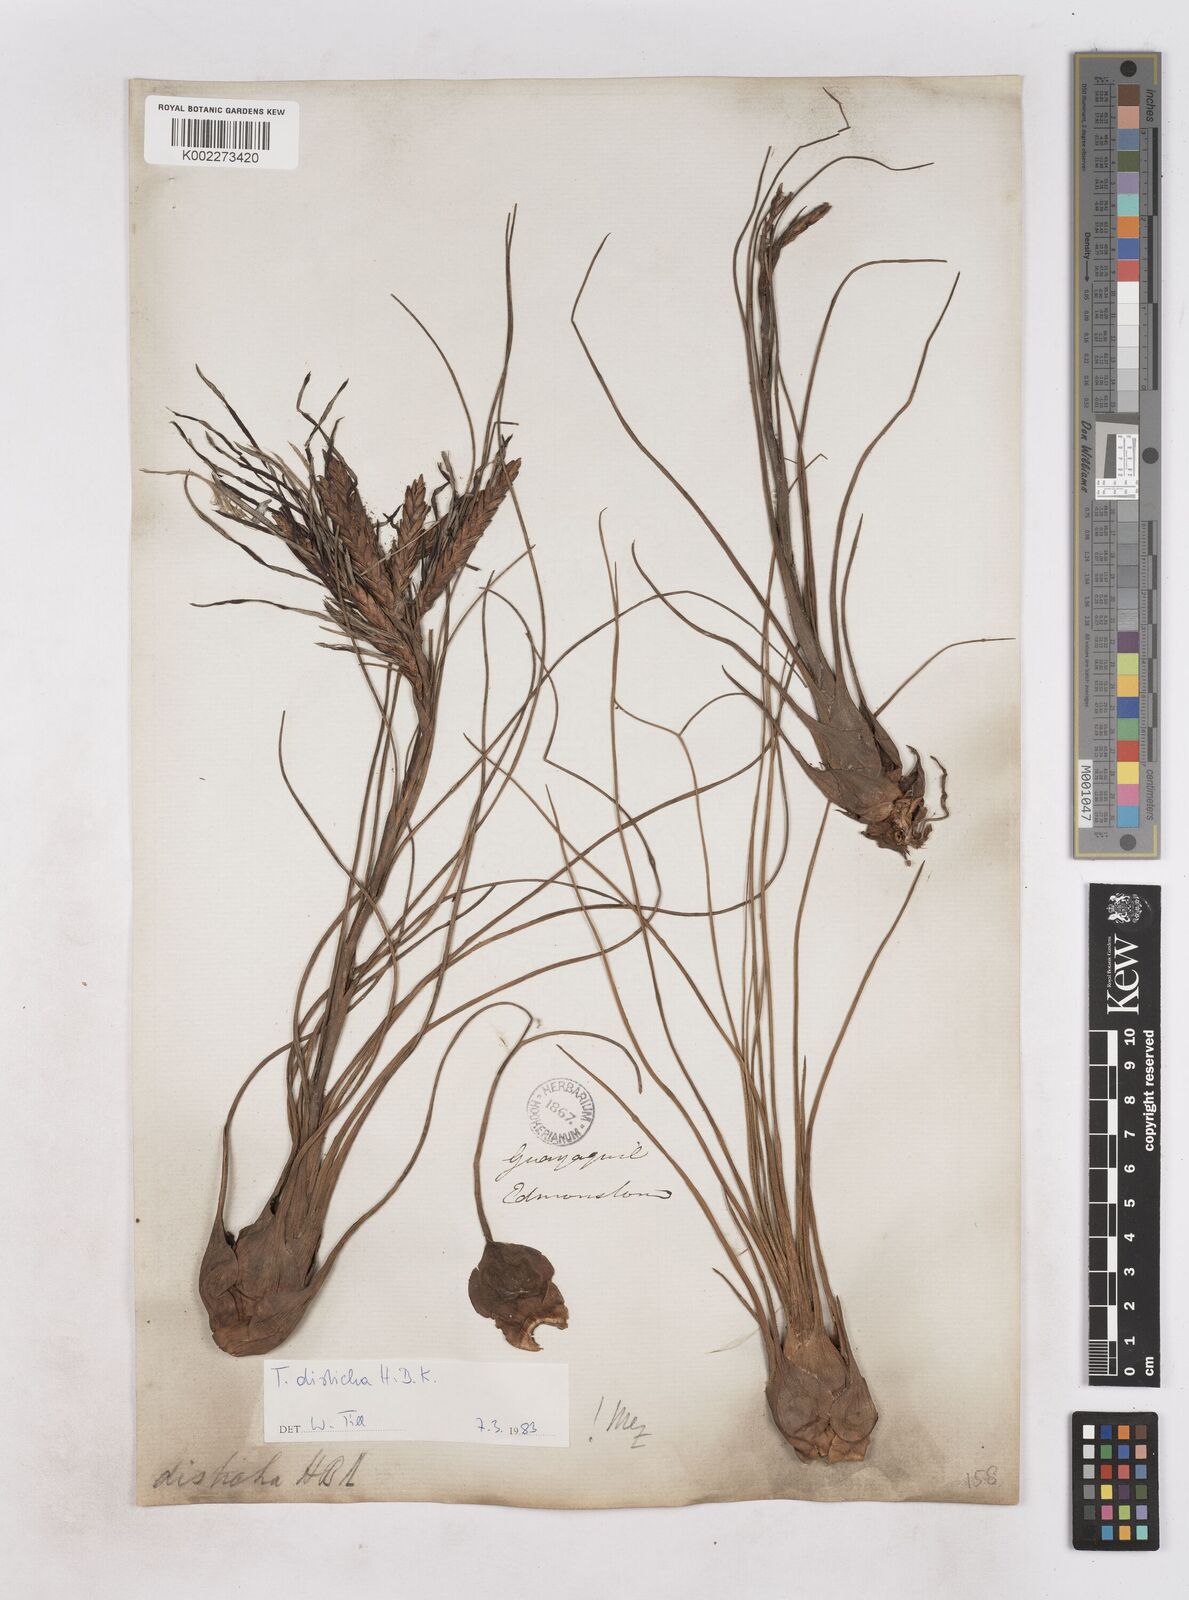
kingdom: Plantae
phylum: Tracheophyta
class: Liliopsida
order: Poales
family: Bromeliaceae
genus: Tillandsia
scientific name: Tillandsia
